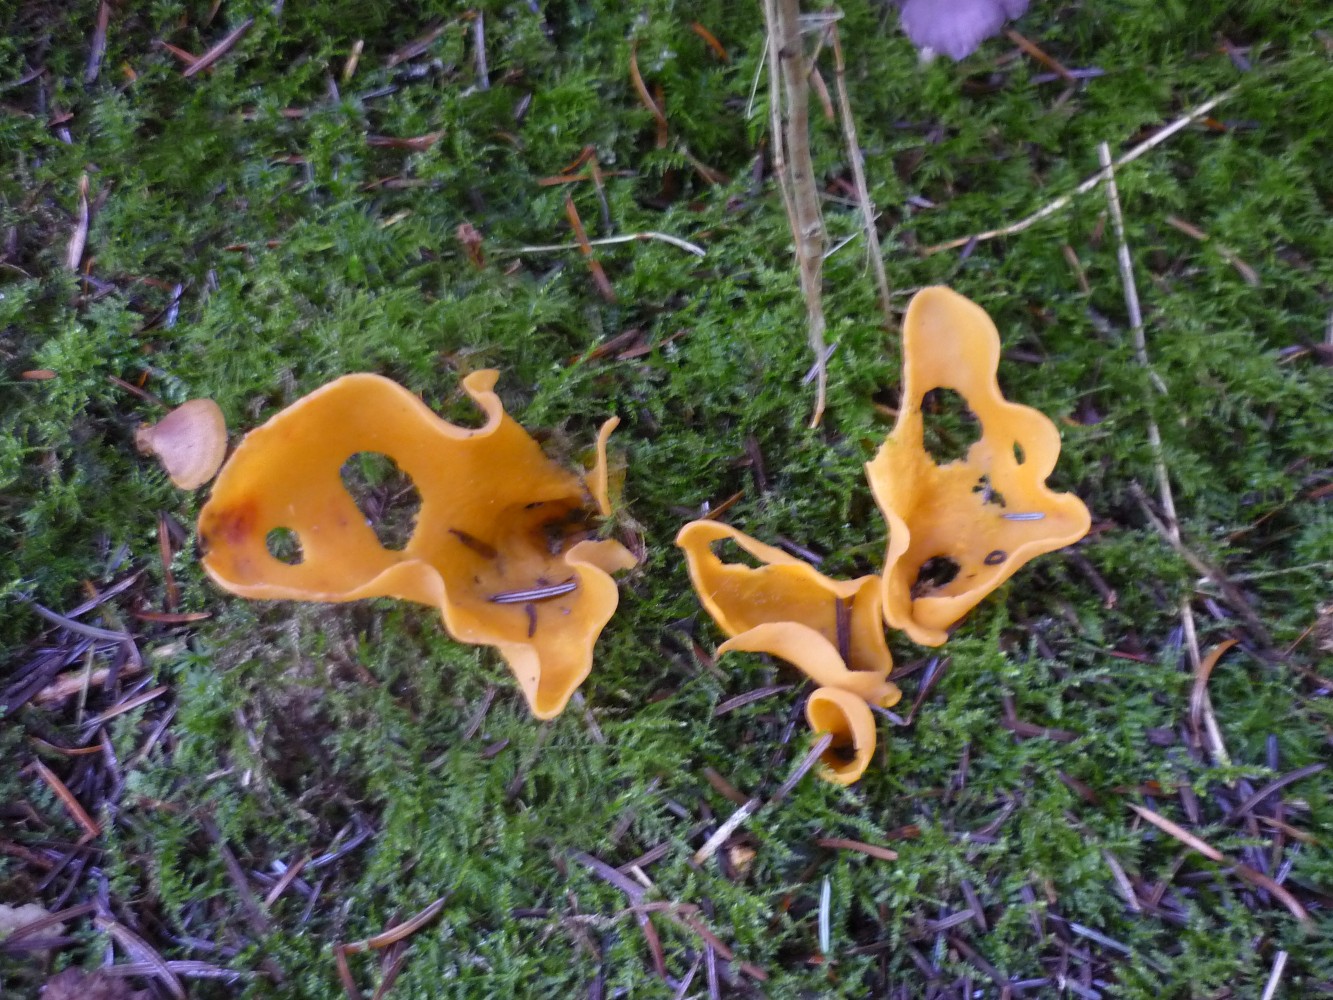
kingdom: Fungi
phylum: Ascomycota
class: Pezizomycetes
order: Pezizales
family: Otideaceae
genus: Otidea
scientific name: Otidea onotica
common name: æsel-ørebæger
